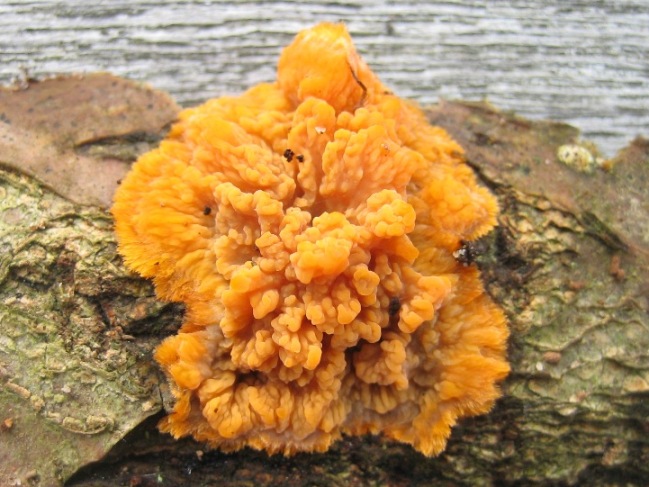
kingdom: Fungi
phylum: Basidiomycota
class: Agaricomycetes
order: Polyporales
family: Meruliaceae
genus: Phlebia
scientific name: Phlebia radiata
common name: stråle-åresvamp
